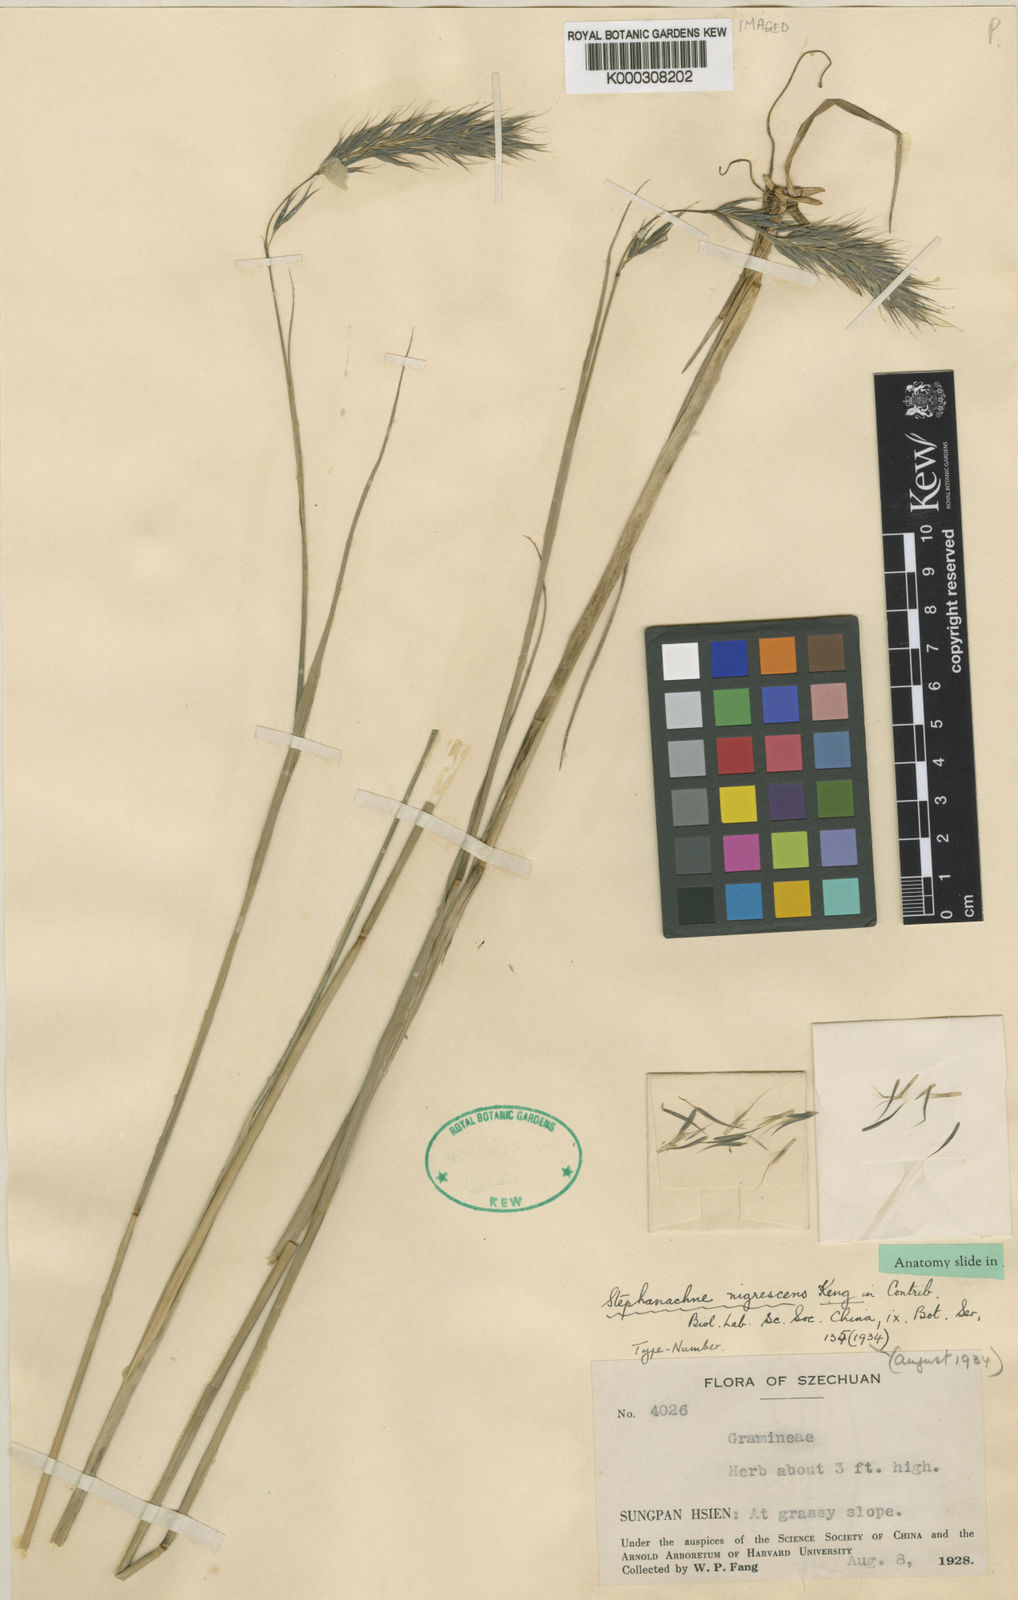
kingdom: Plantae
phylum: Tracheophyta
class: Liliopsida
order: Poales
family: Poaceae
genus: Stephanachne
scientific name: Stephanachne nigrescens
